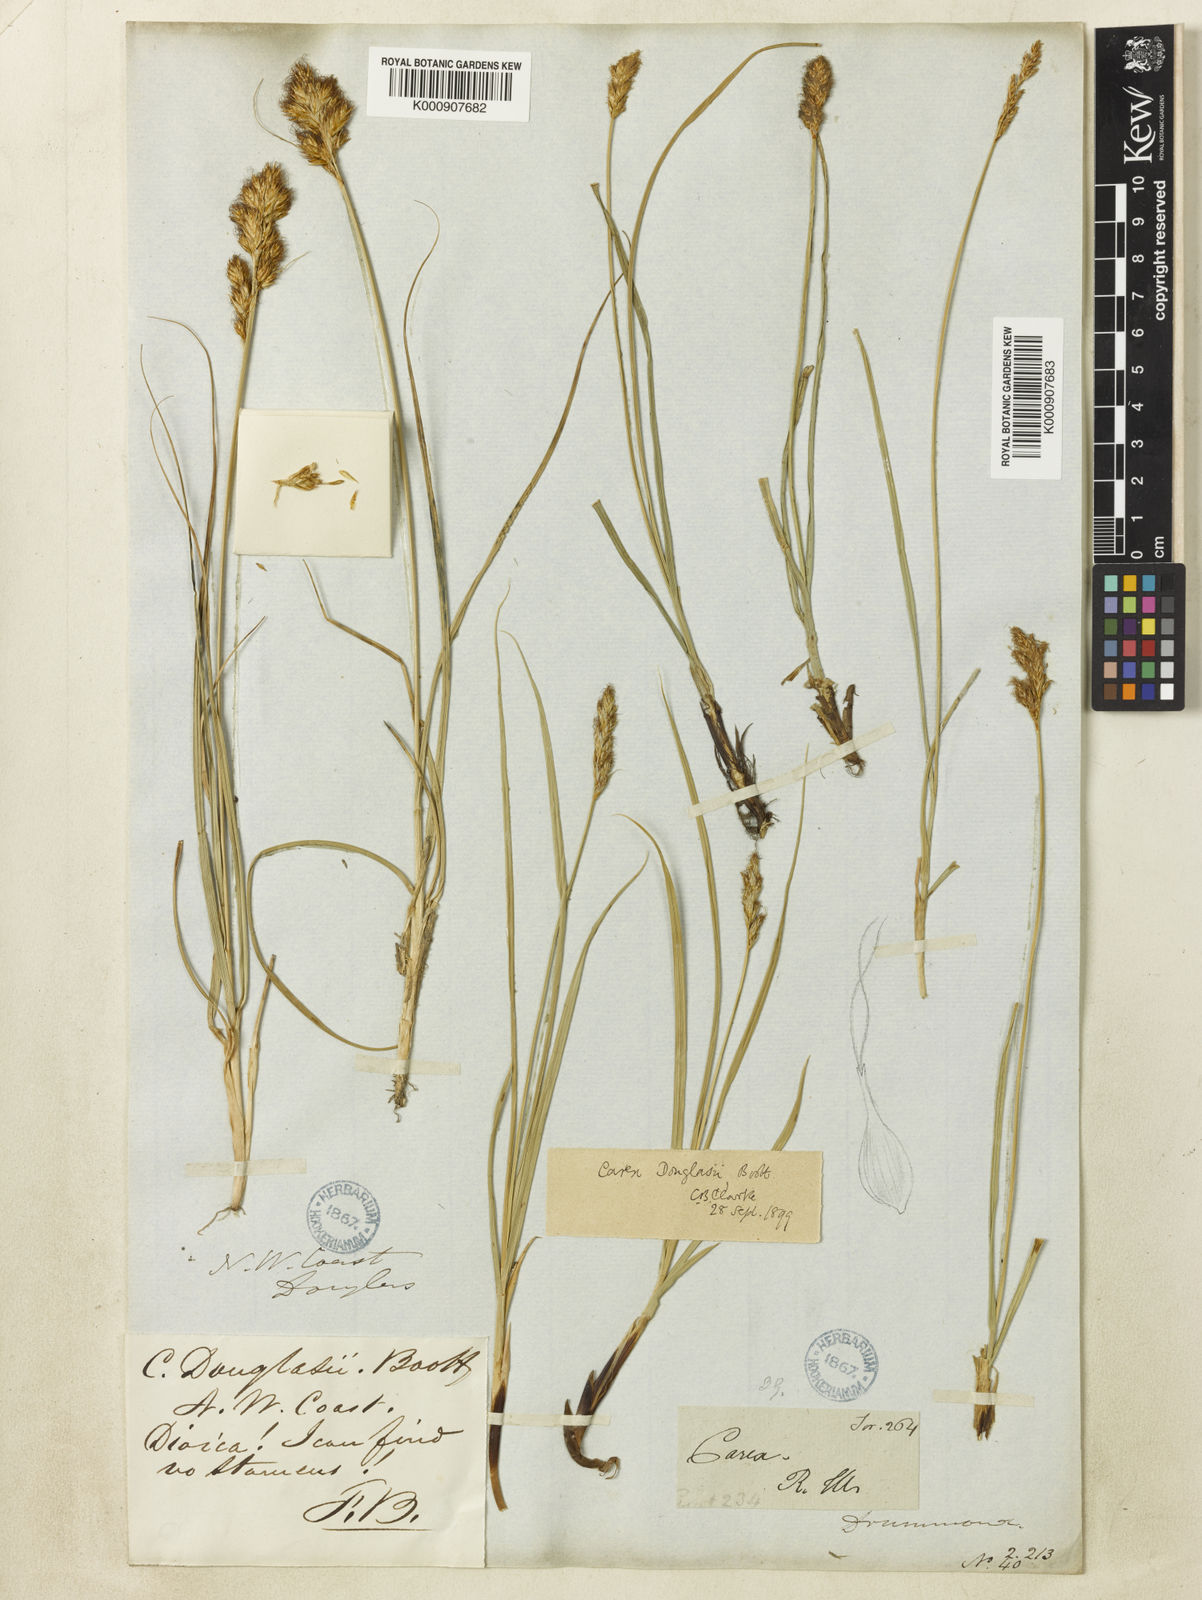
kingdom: Plantae
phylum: Tracheophyta
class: Liliopsida
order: Poales
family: Cyperaceae
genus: Carex
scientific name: Carex douglasii
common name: Douglas' sedge
